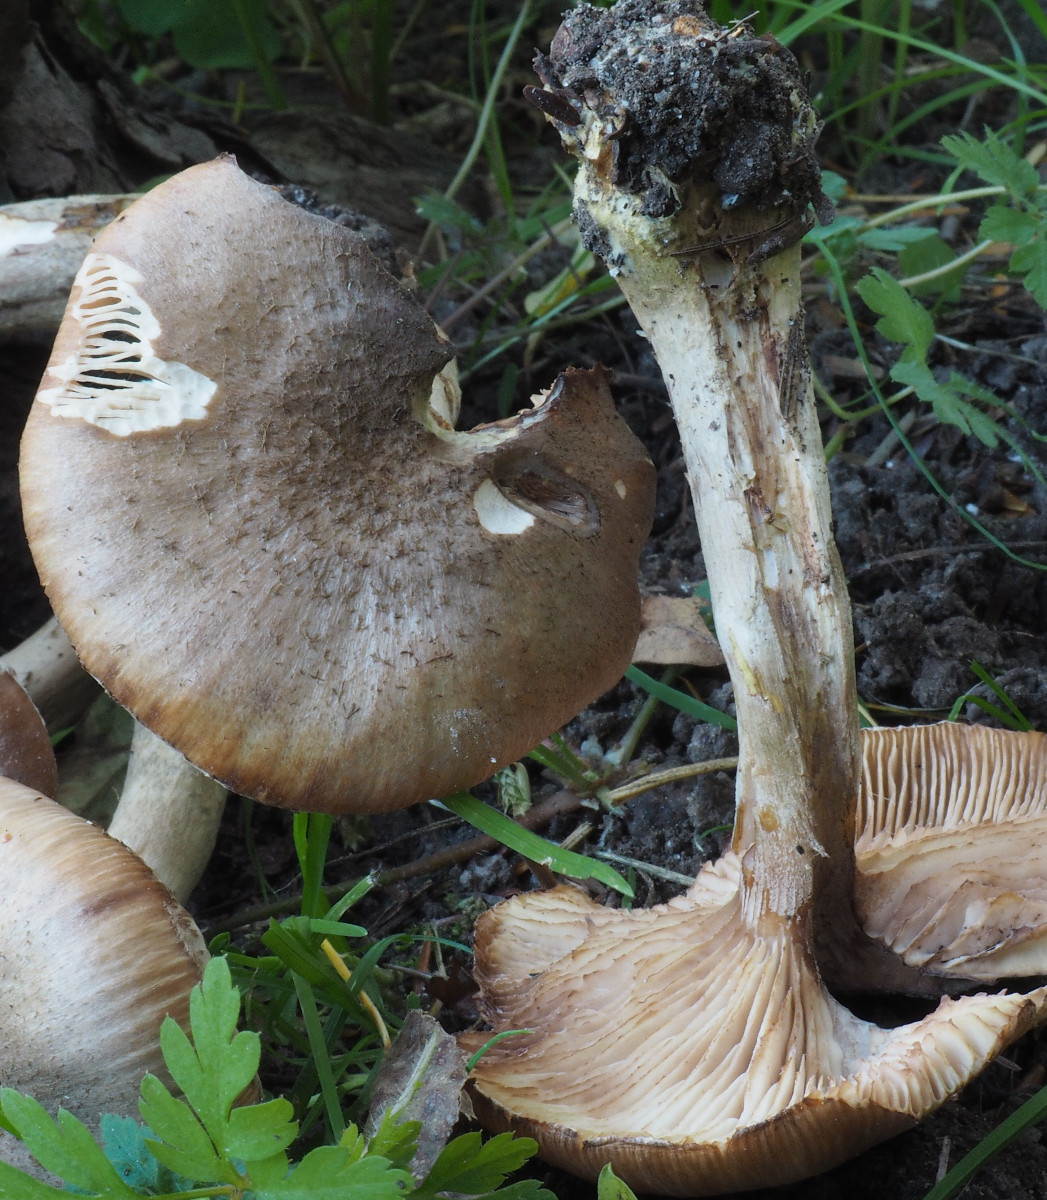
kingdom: Fungi
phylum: Basidiomycota
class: Agaricomycetes
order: Agaricales
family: Physalacriaceae
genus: Armillaria
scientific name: Armillaria lutea
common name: køllestokket honningsvamp
